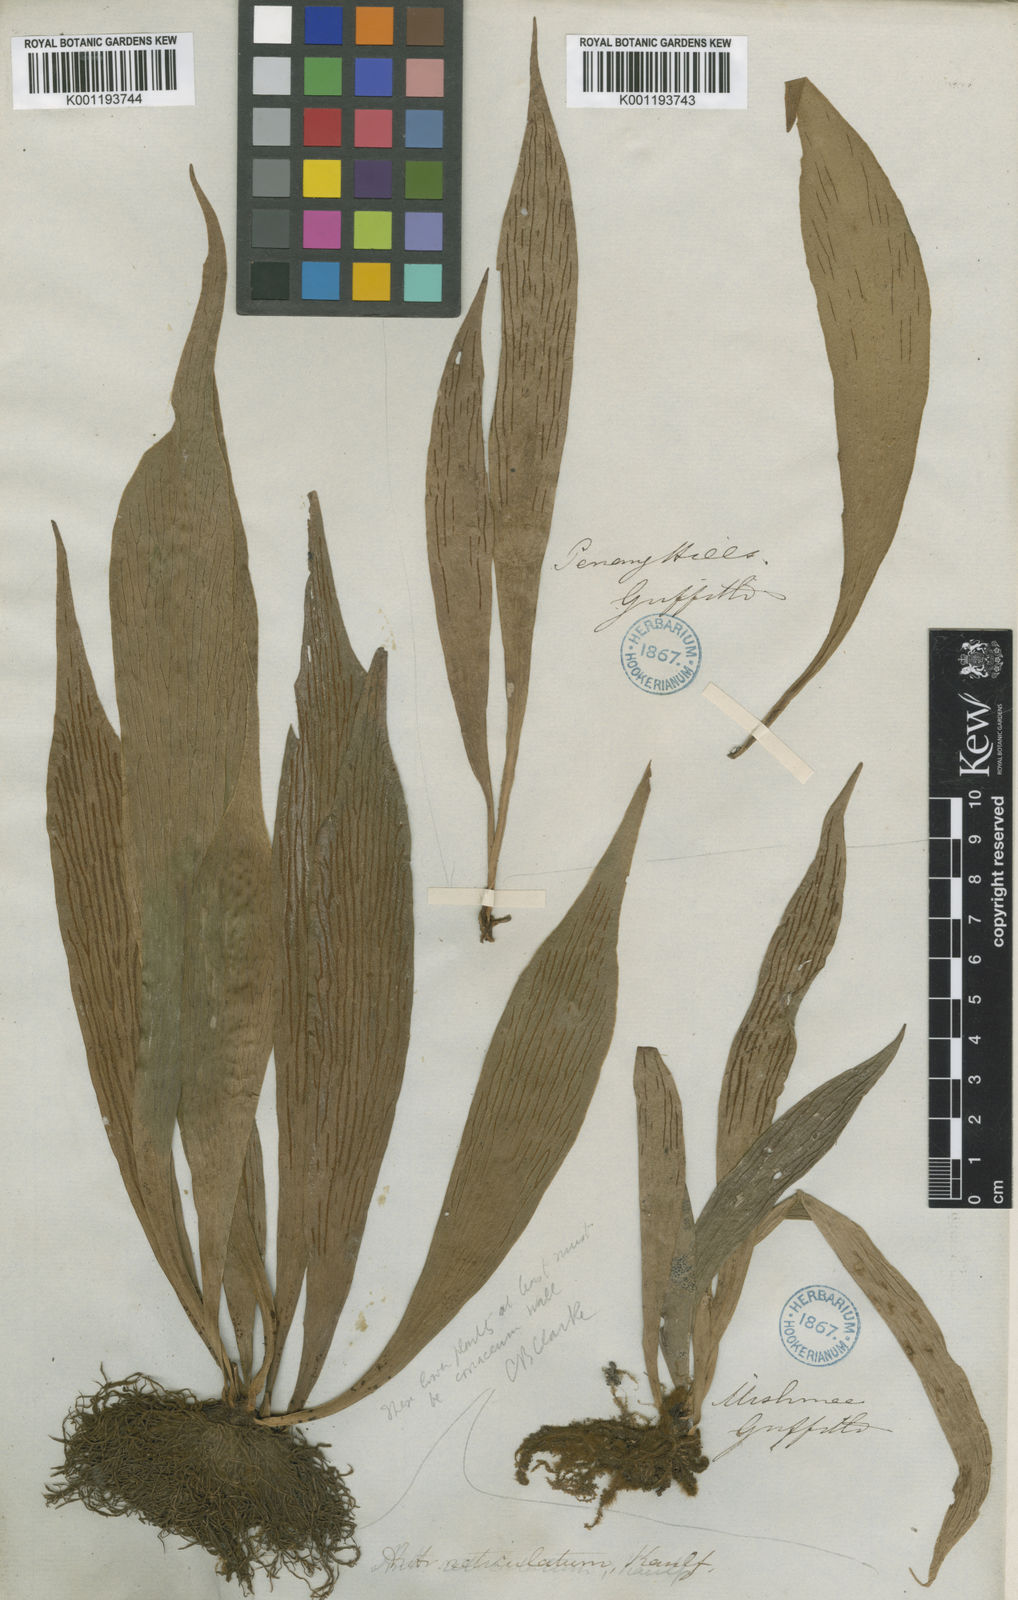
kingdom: Plantae
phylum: Tracheophyta
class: Polypodiopsida
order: Polypodiales
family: Pteridaceae
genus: Antrophyum
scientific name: Antrophyum reticulatum
